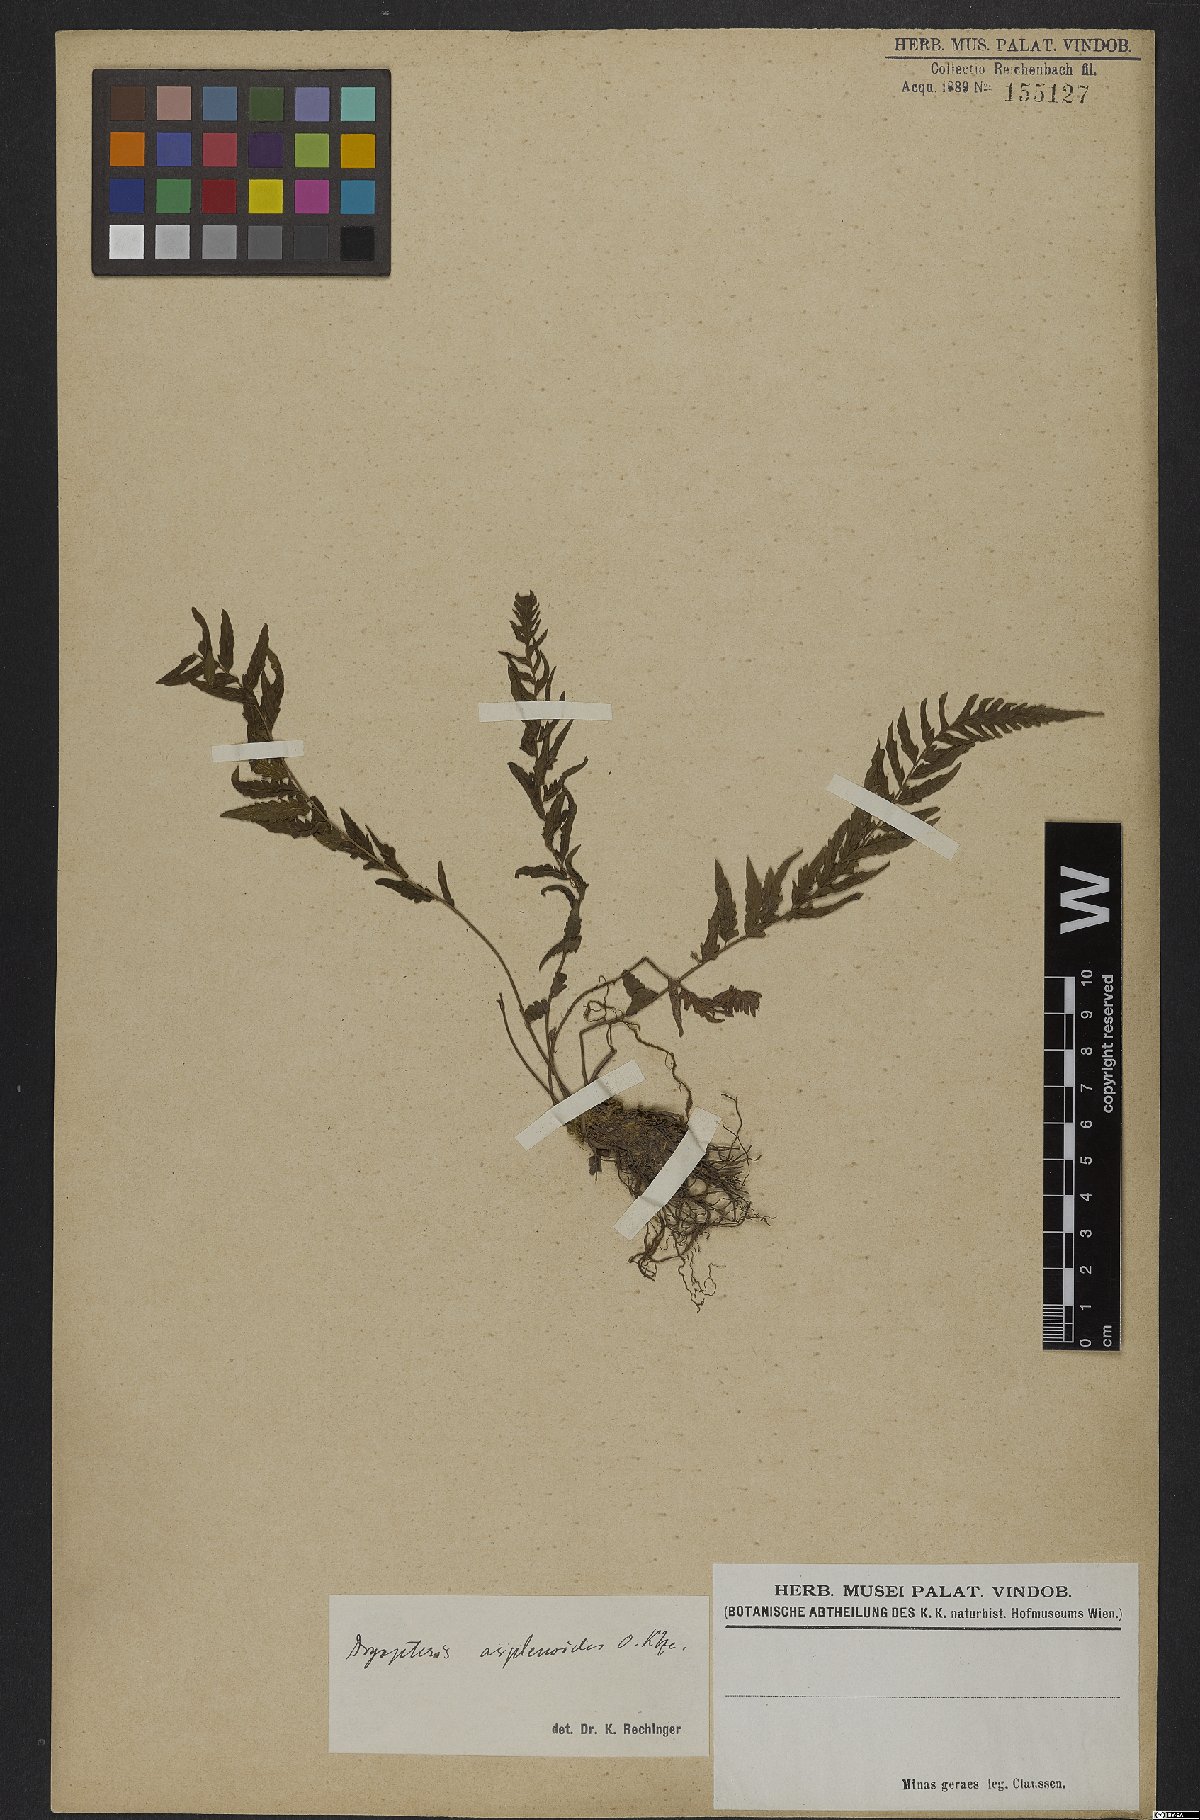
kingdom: Plantae
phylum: Tracheophyta
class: Polypodiopsida
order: Polypodiales
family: Thelypteridaceae
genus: Amauropelta
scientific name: Amauropelta aspidioides
